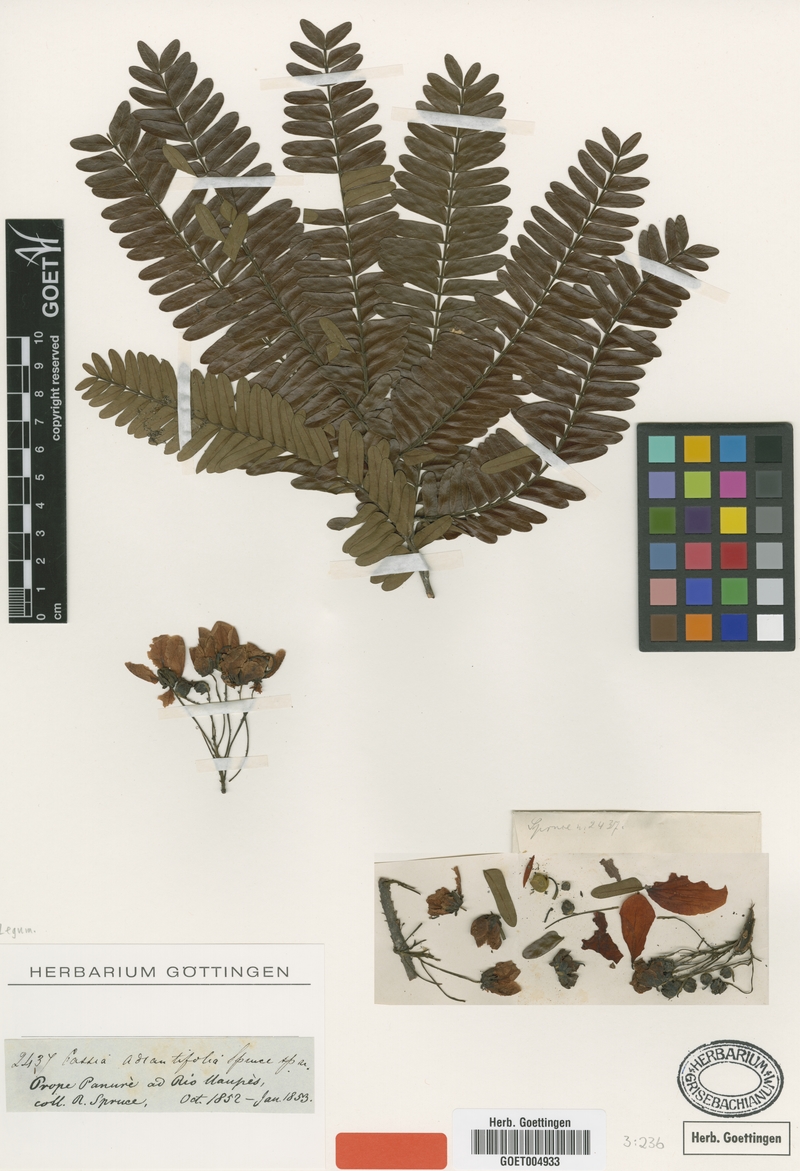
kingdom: Plantae
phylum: Tracheophyta
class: Magnoliopsida
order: Fabales
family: Fabaceae
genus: Chamaecrista
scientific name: Chamaecrista adiantifolia
